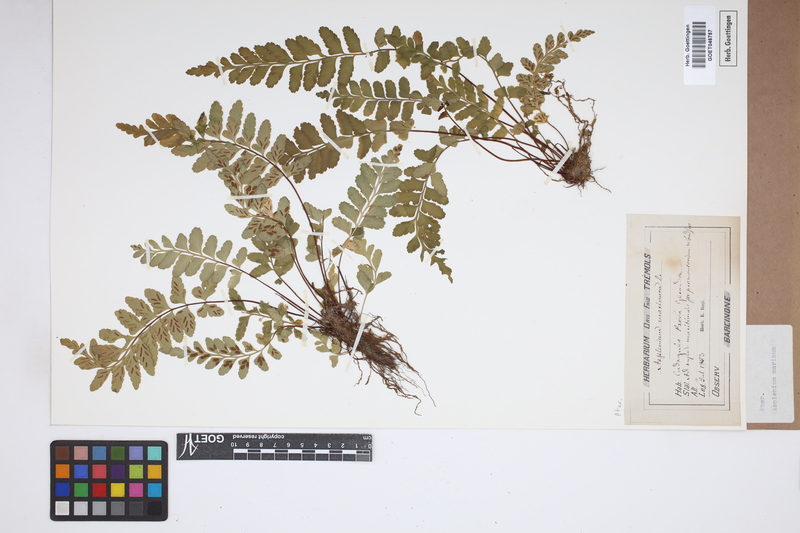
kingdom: Plantae
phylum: Tracheophyta
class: Polypodiopsida
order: Polypodiales
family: Aspleniaceae
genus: Asplenium
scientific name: Asplenium marinum
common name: Sea spleenwort
